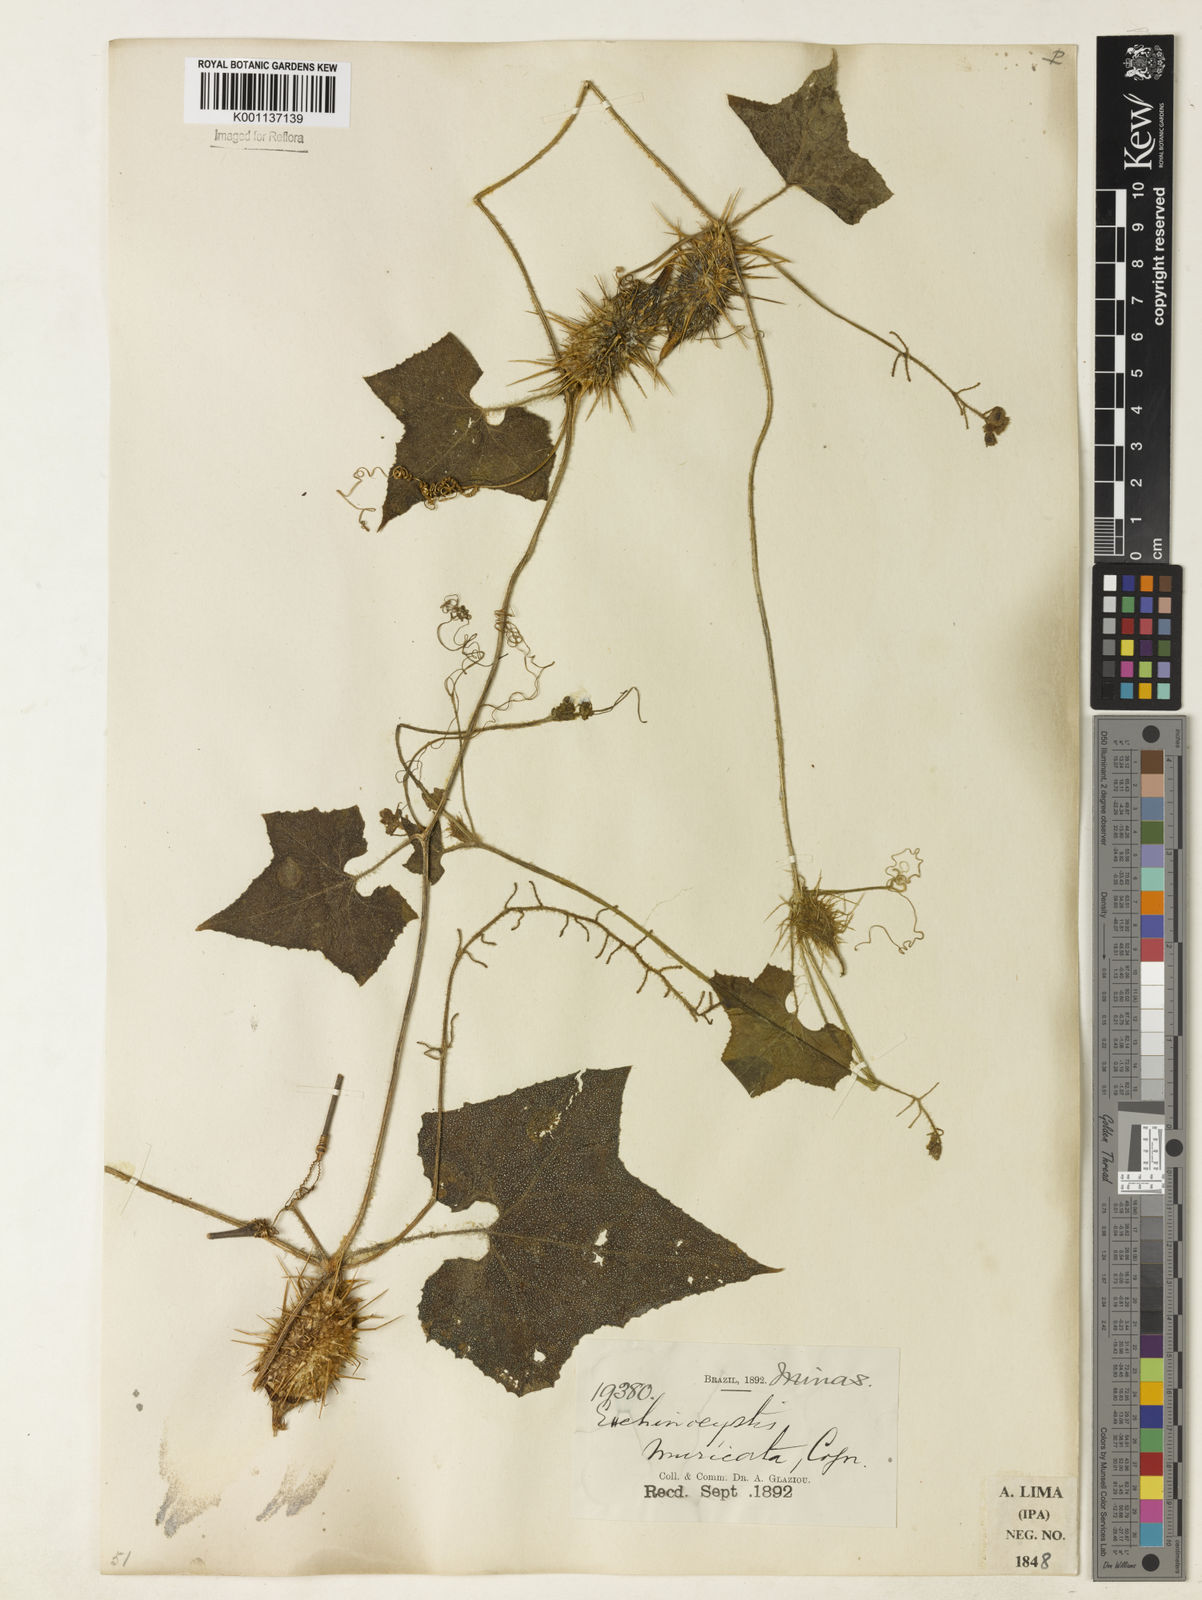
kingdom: Plantae
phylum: Tracheophyta
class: Magnoliopsida
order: Cucurbitales
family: Cucurbitaceae
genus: Echinopepon
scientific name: Echinopepon racemosus
